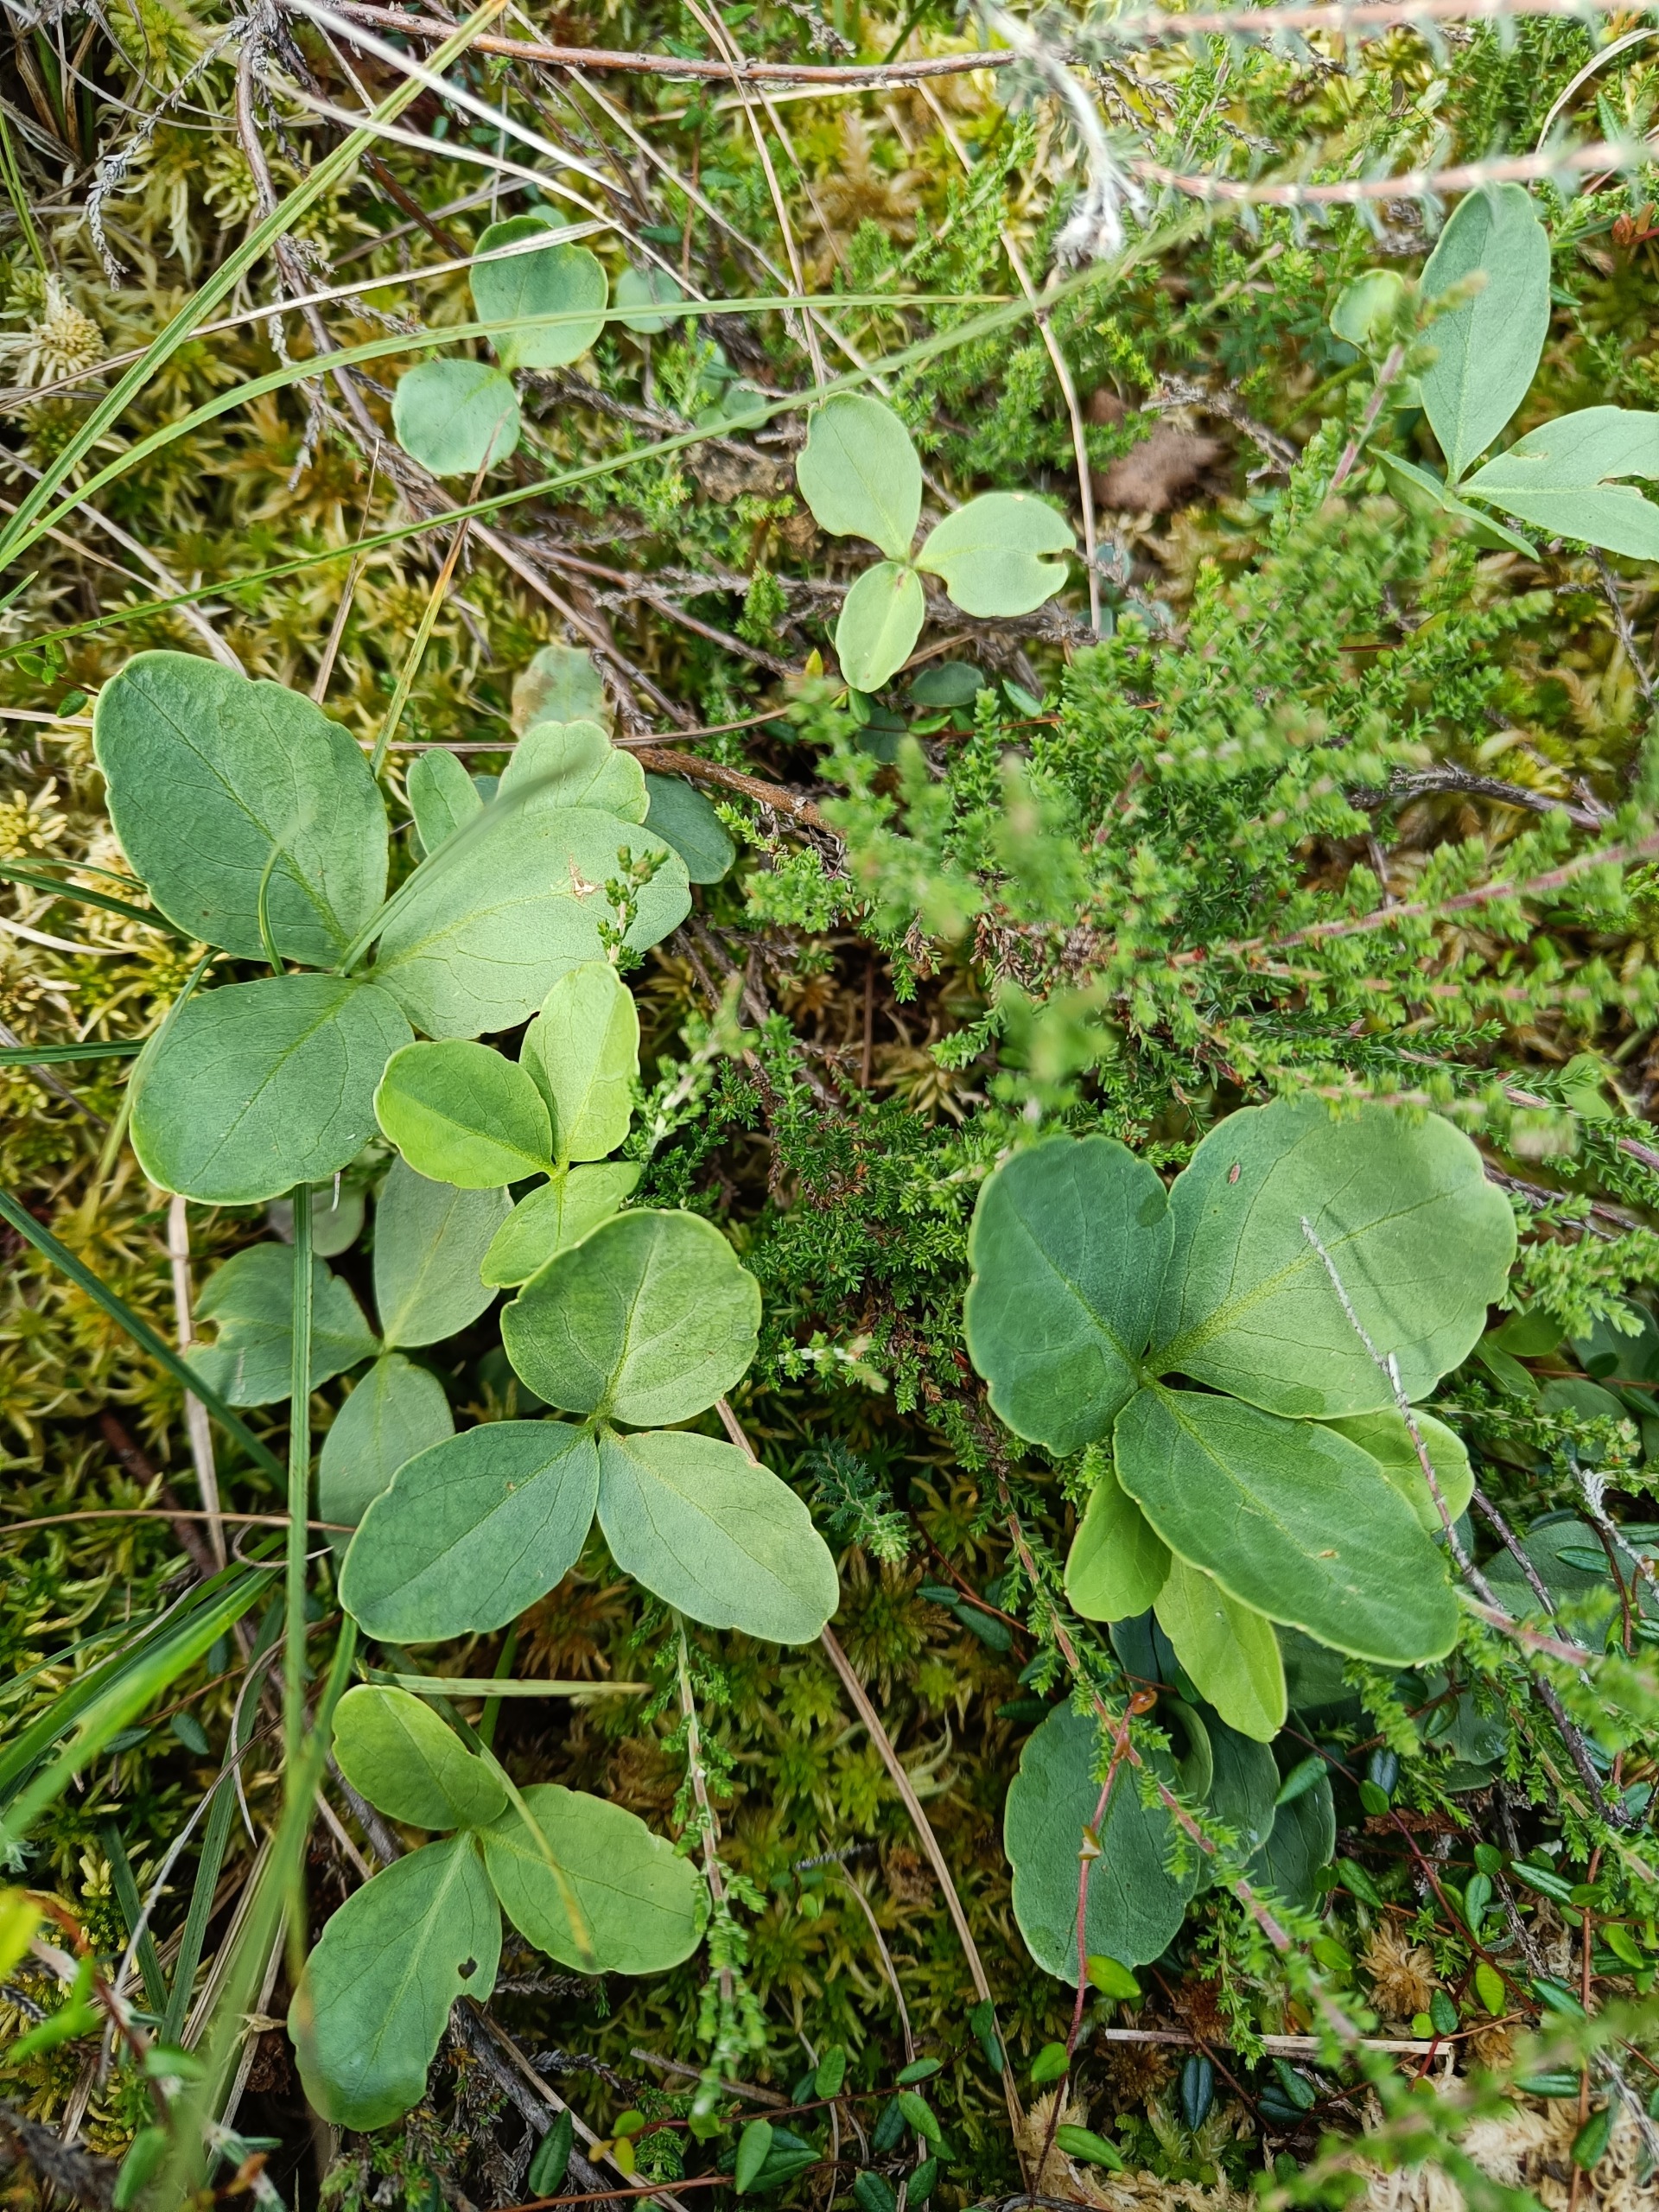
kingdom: Plantae
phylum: Tracheophyta
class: Magnoliopsida
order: Asterales
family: Menyanthaceae
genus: Menyanthes
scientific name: Menyanthes trifoliata
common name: Bukkeblad
